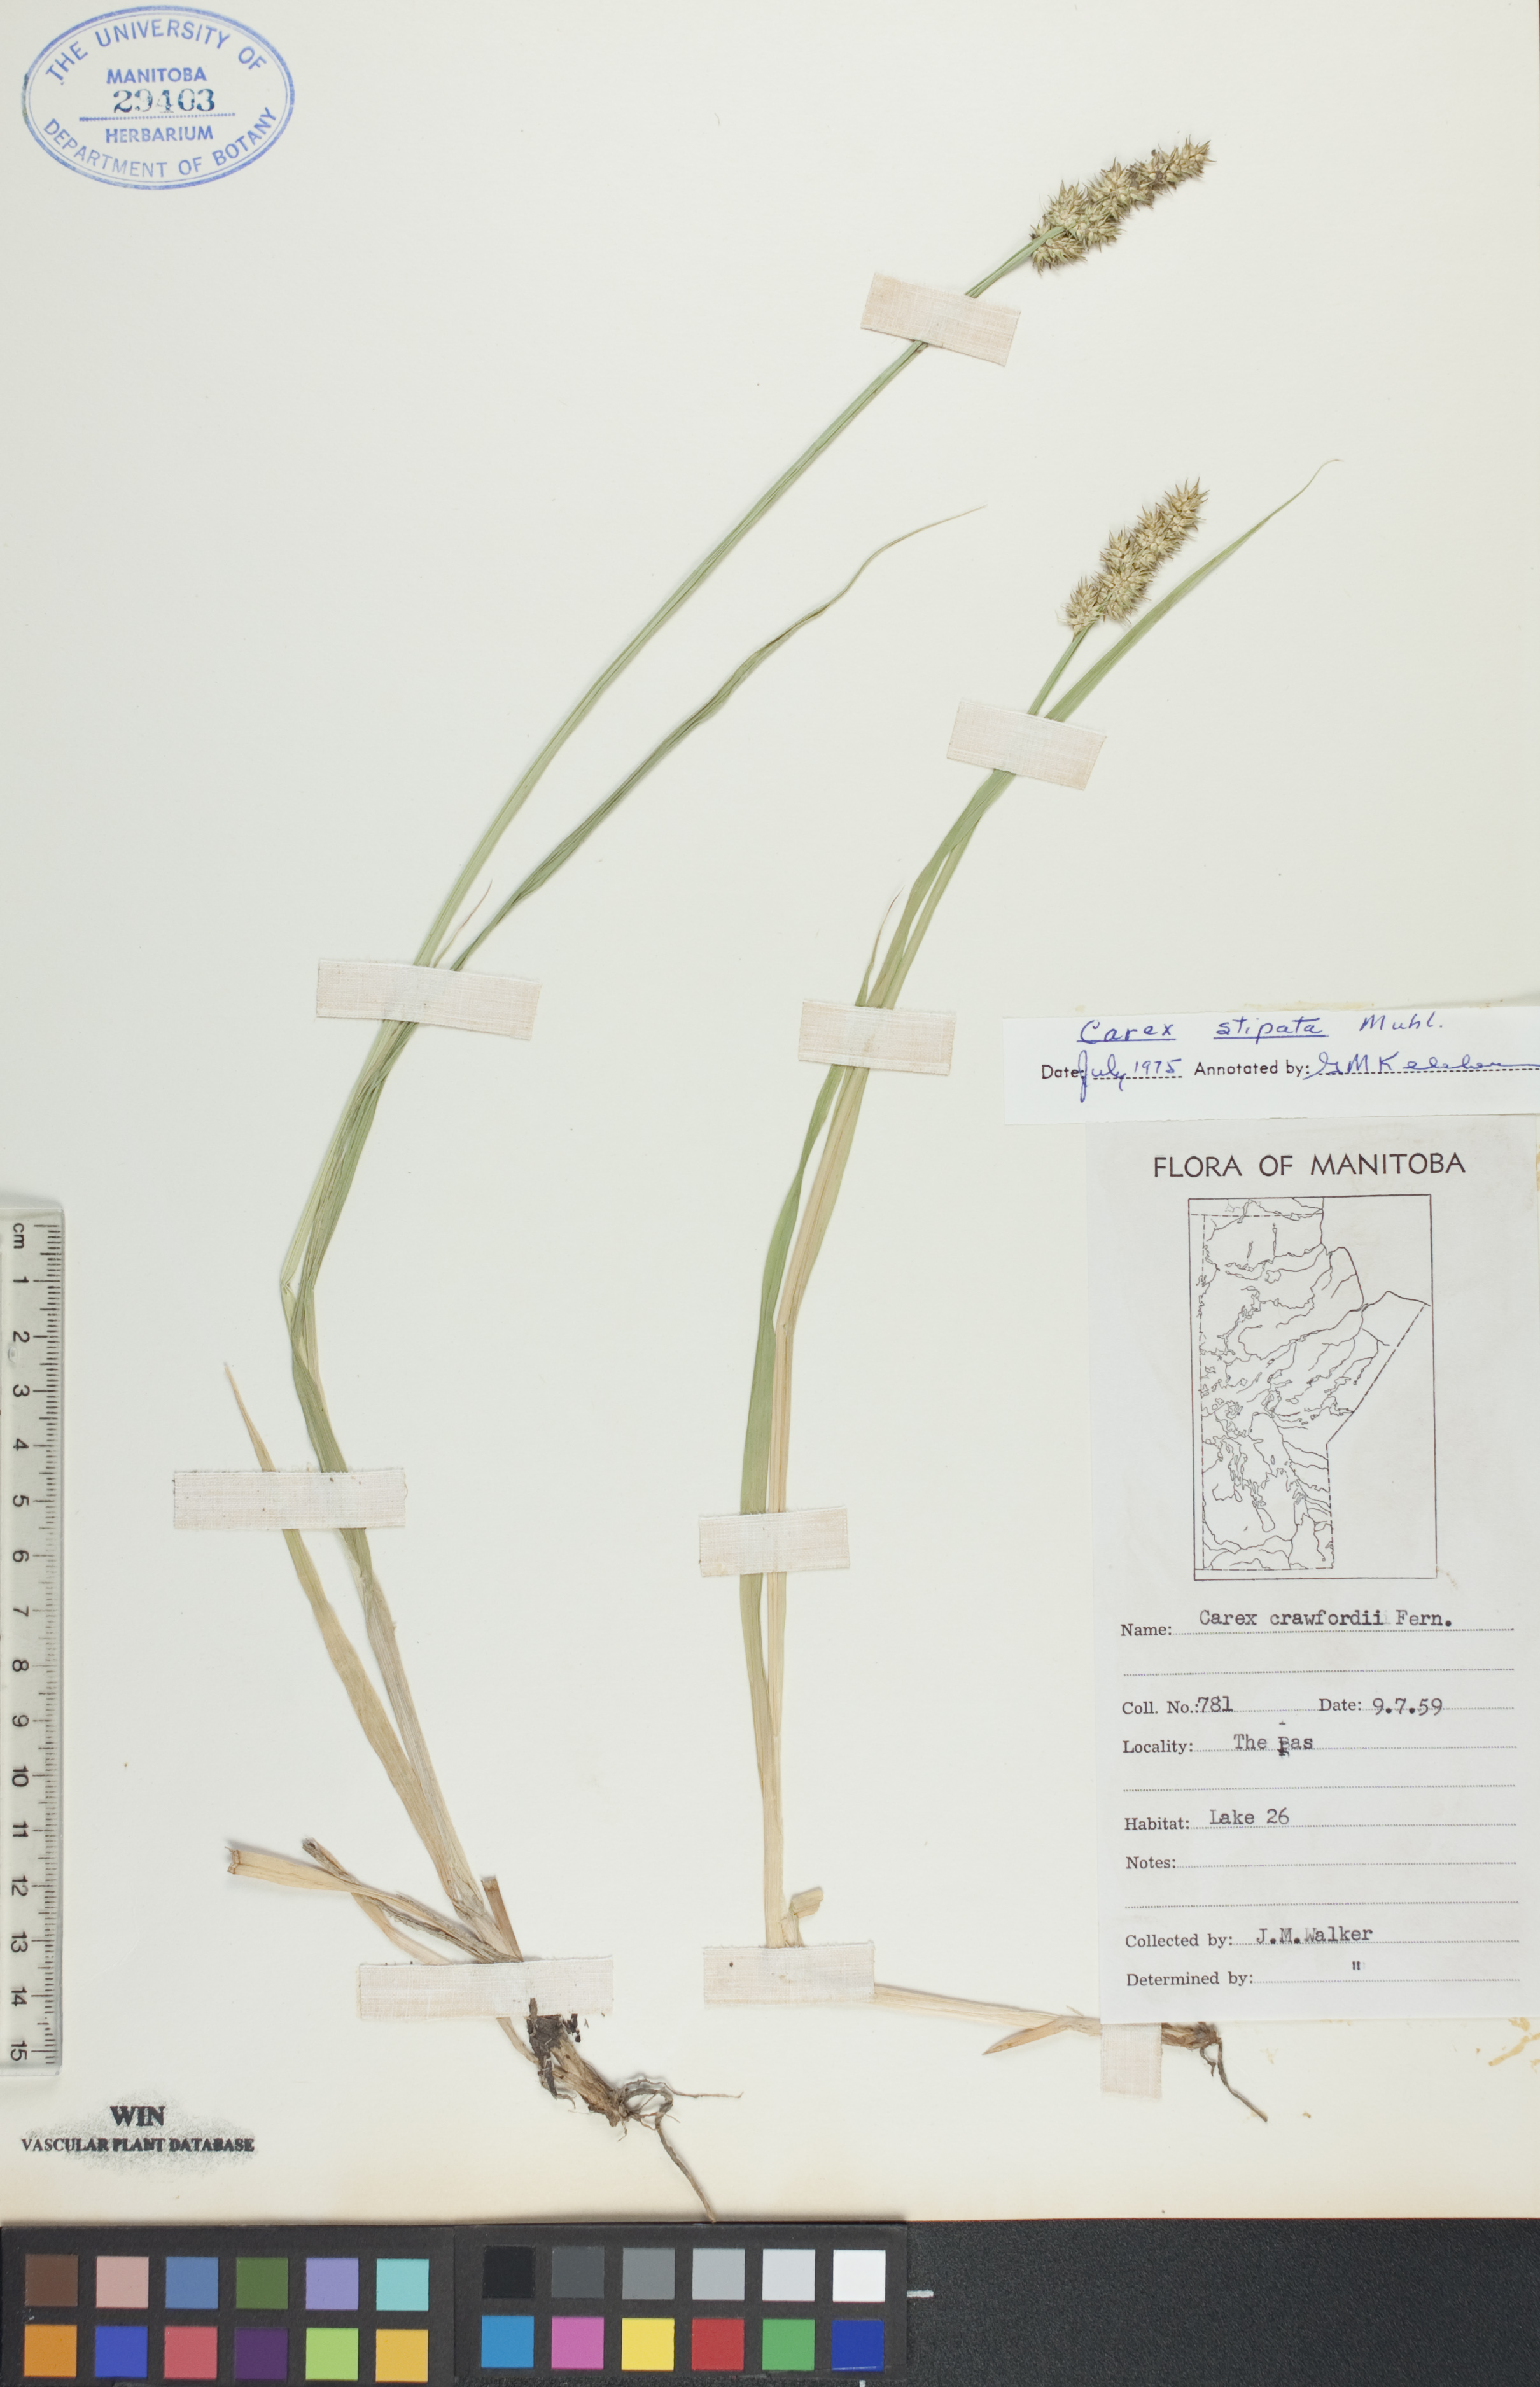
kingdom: Plantae
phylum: Tracheophyta
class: Liliopsida
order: Poales
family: Cyperaceae
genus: Carex
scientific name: Carex stipata
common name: Awl-fruited sedge
